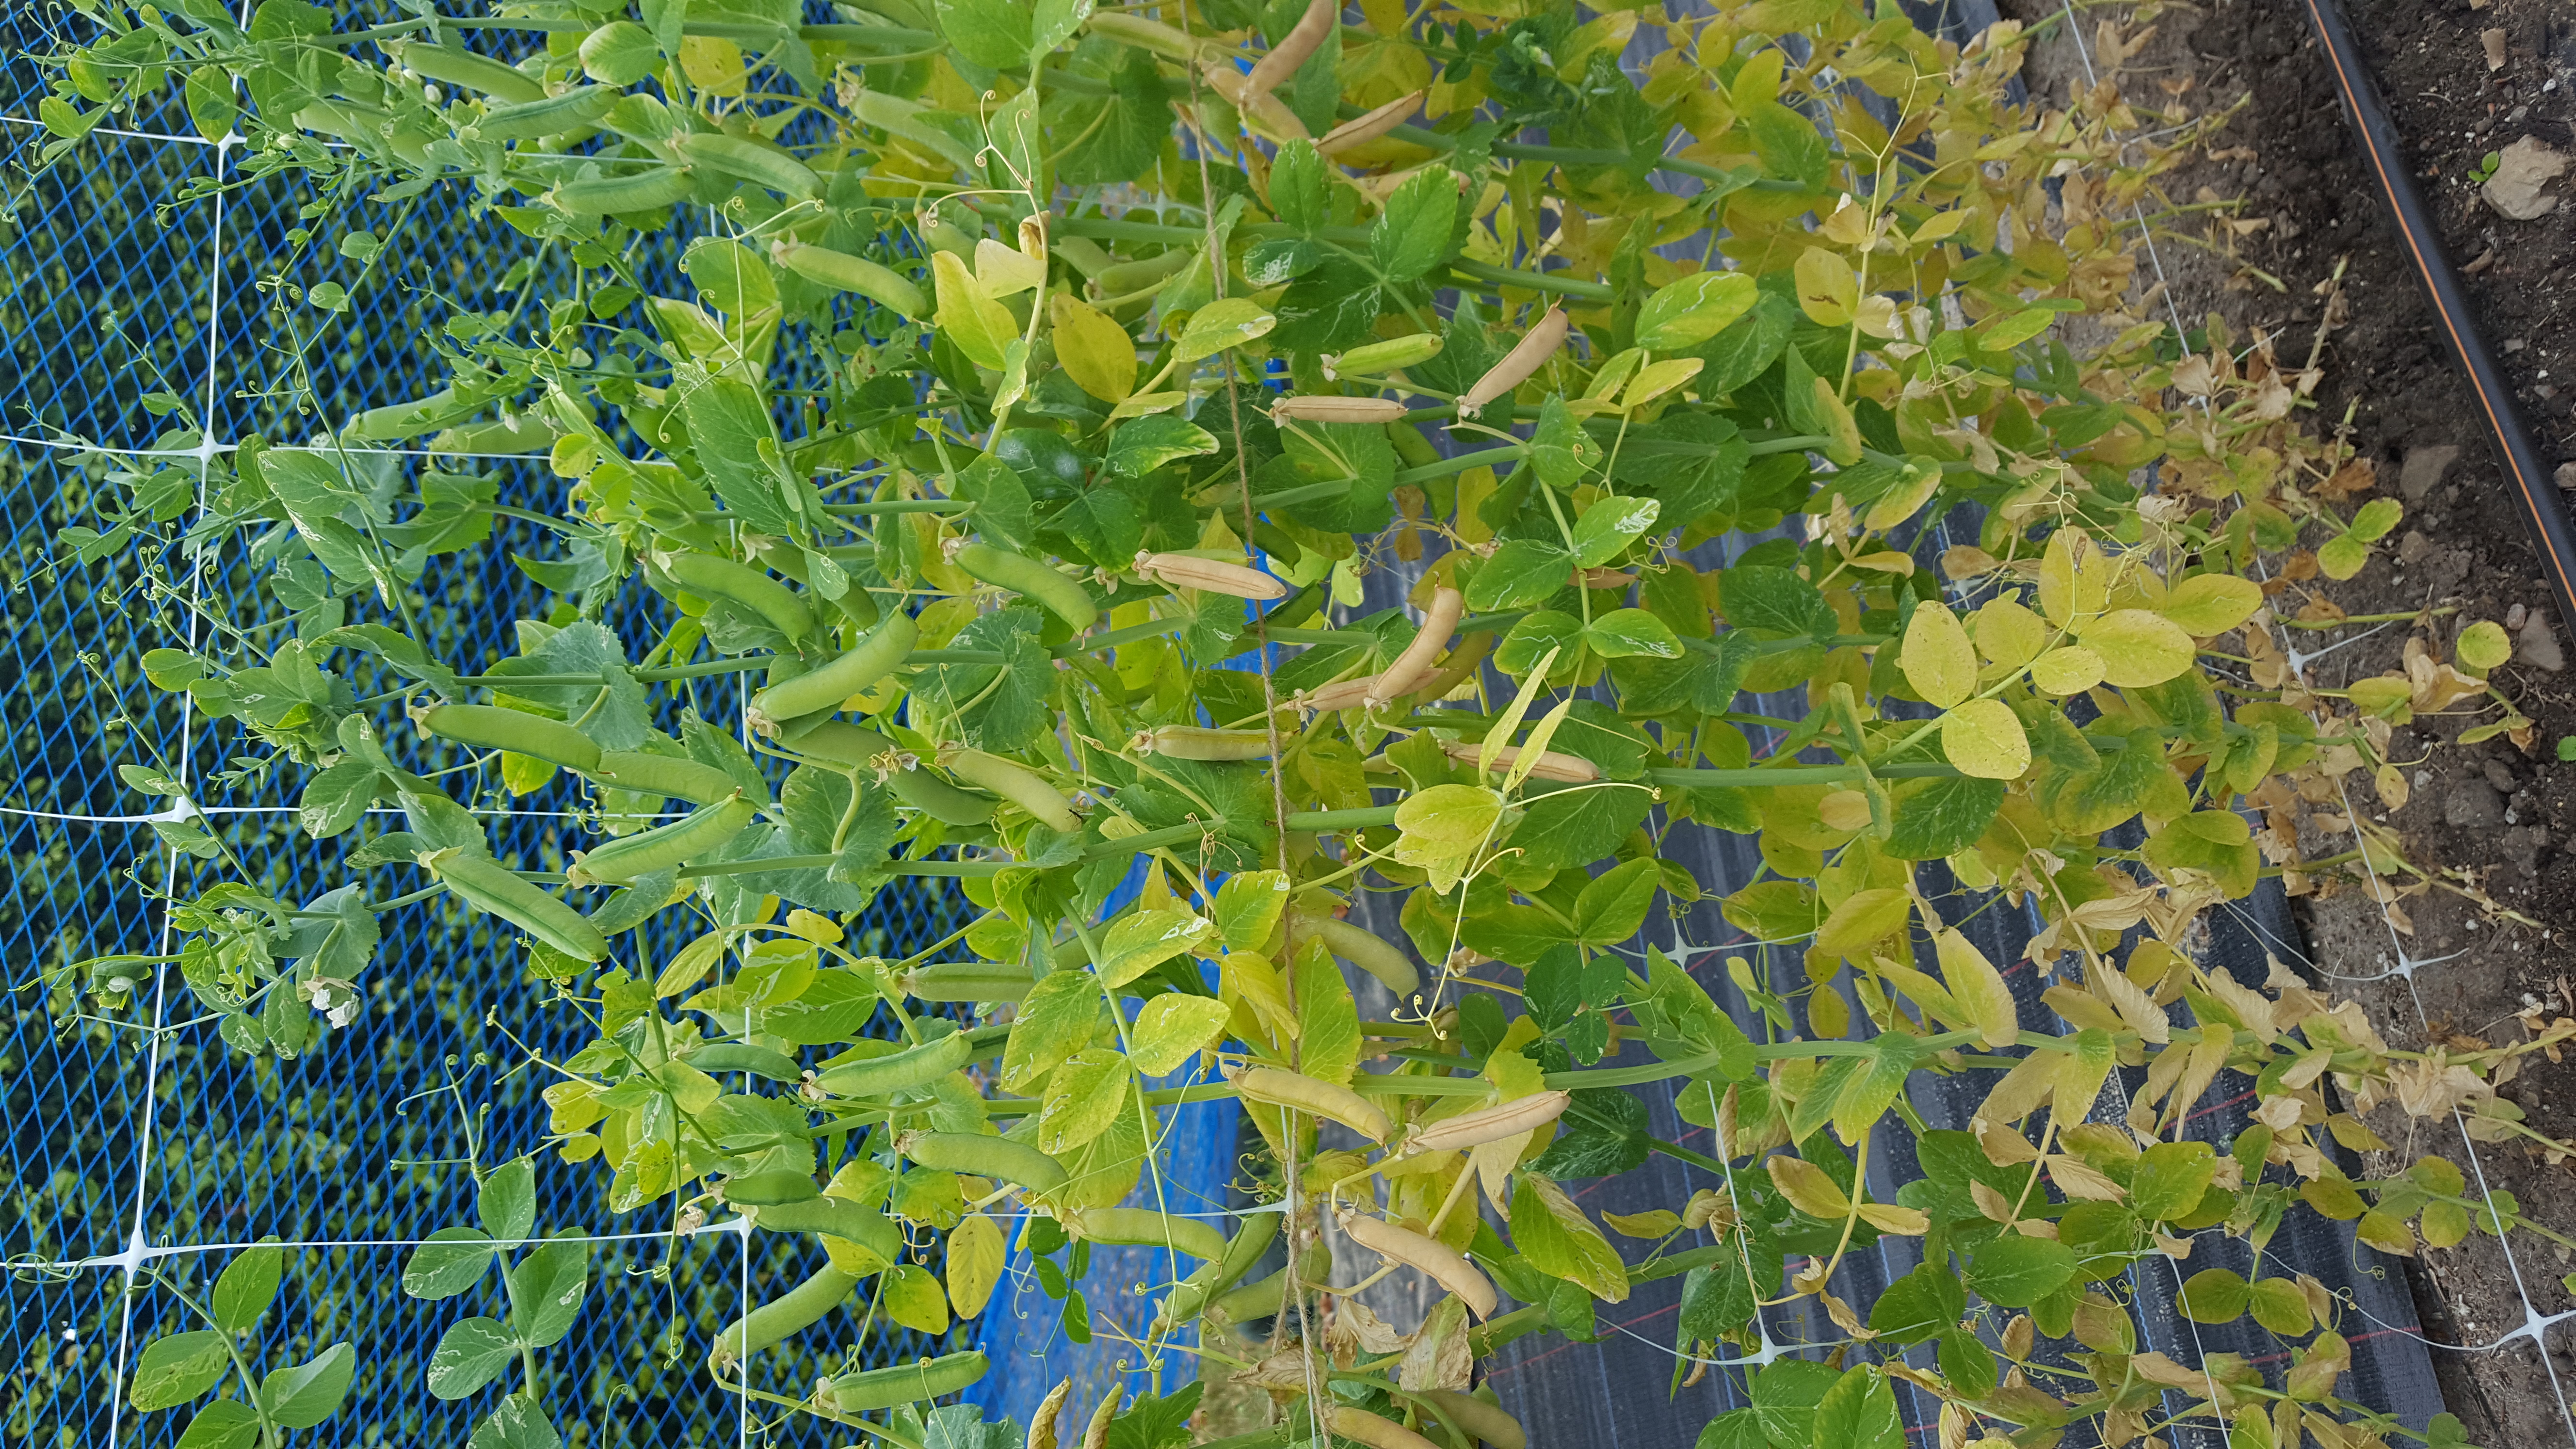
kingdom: Plantae
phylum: Tracheophyta
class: Magnoliopsida
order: Fabales
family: Fabaceae
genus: Lathyrus
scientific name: Lathyrus oleraceus
